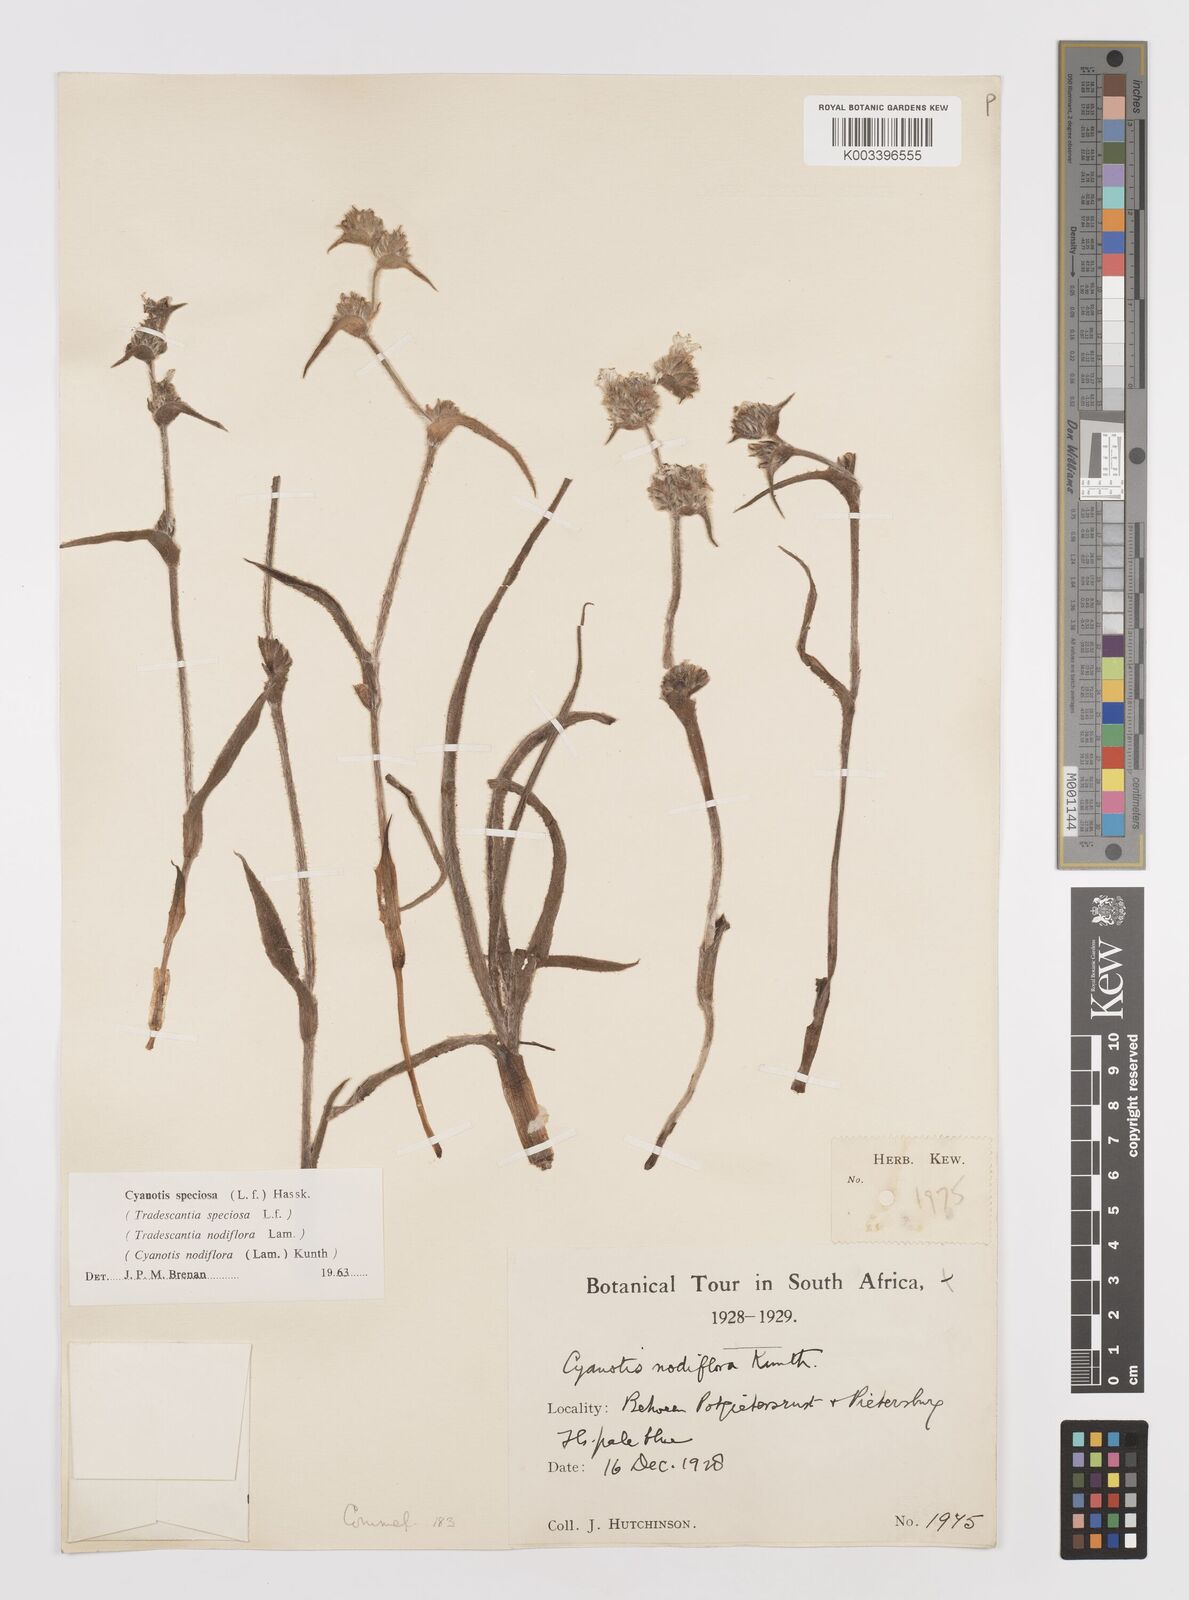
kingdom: Plantae
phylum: Tracheophyta
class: Liliopsida
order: Commelinales
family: Commelinaceae
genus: Cyanotis
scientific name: Cyanotis speciosa
